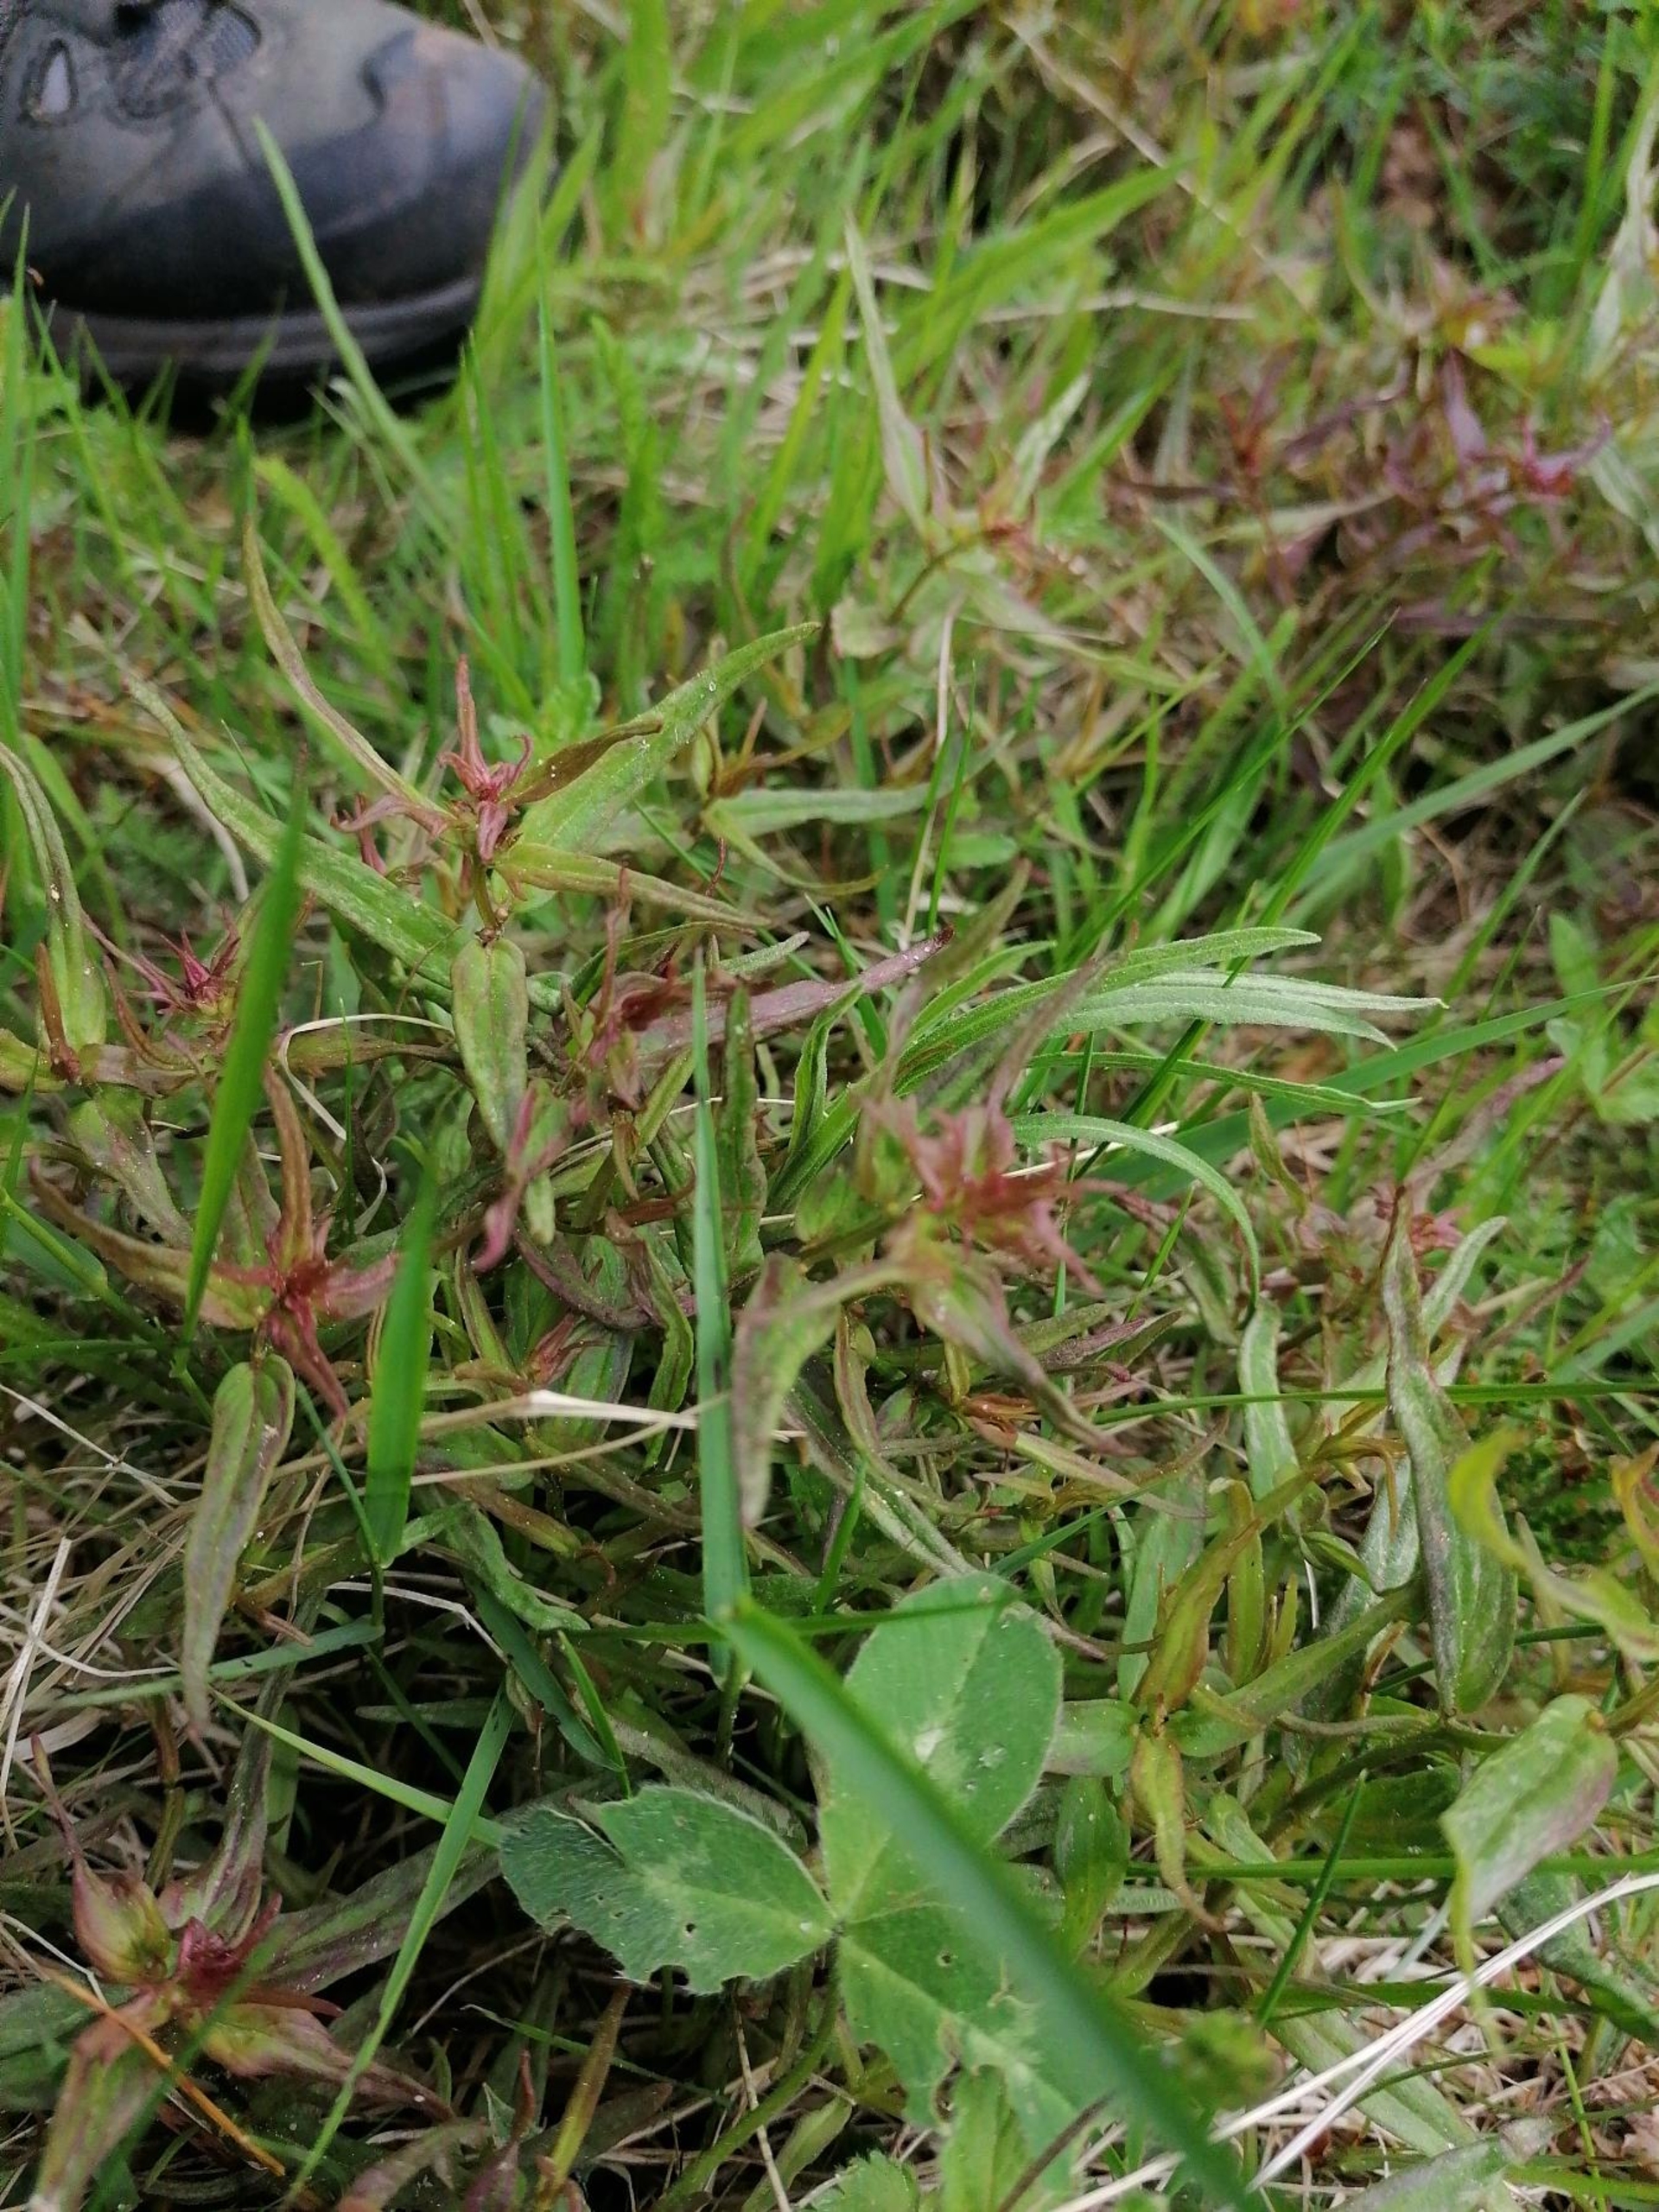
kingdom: Plantae
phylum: Tracheophyta
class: Magnoliopsida
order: Lamiales
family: Orobanchaceae
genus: Melampyrum
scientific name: Melampyrum pratense
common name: Almindelig kohvede
